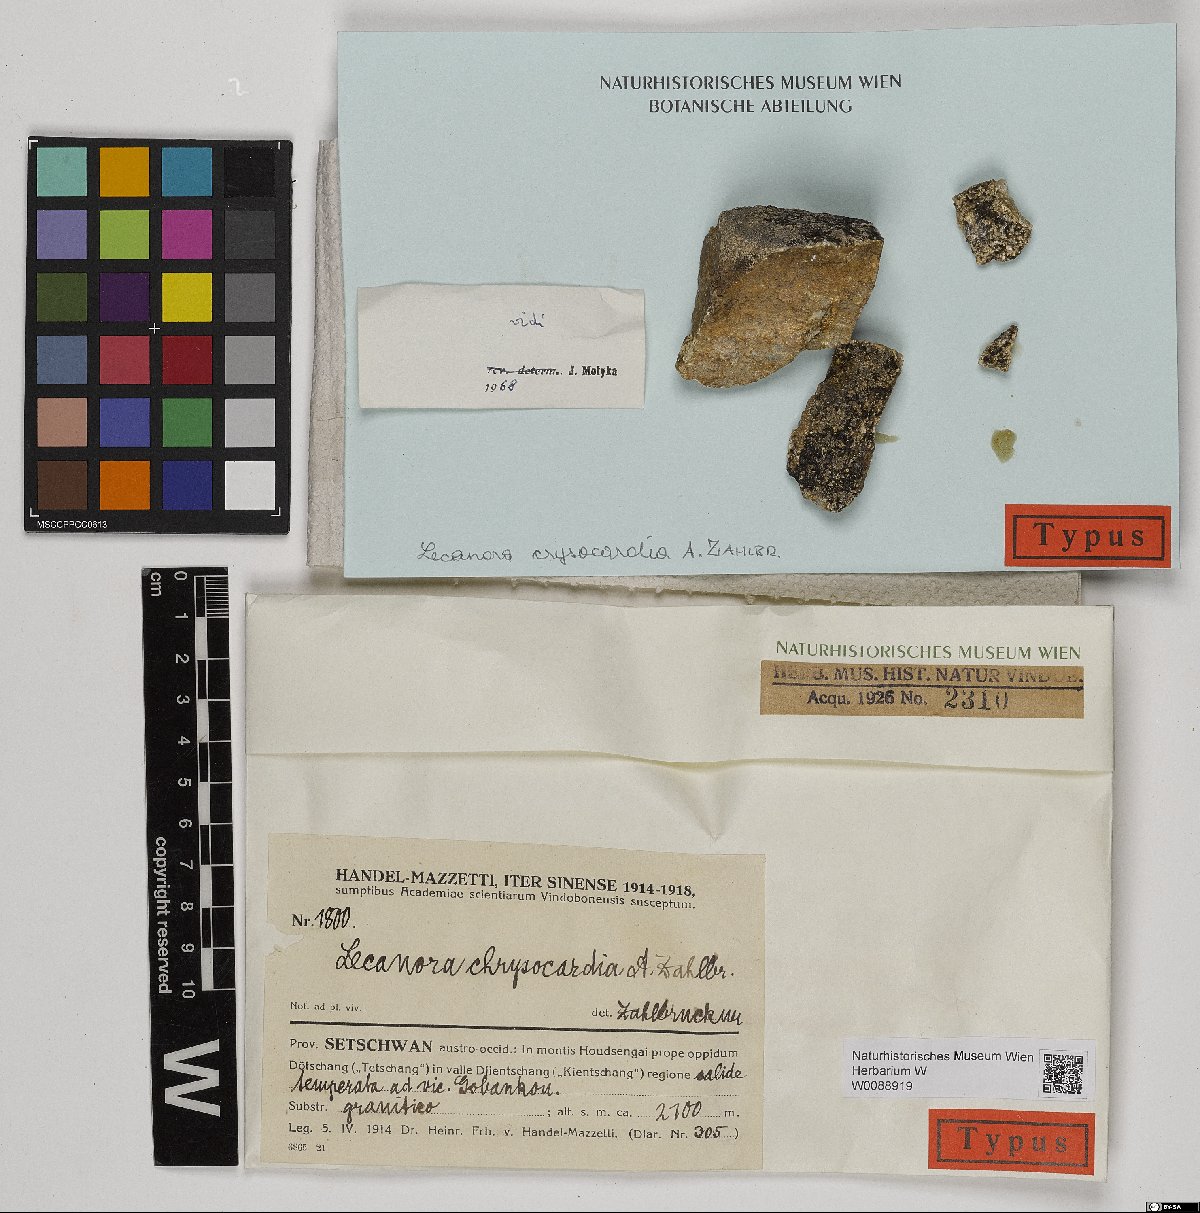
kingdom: Fungi
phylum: Ascomycota
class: Lecanoromycetes
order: Lecanorales
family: Lecanoraceae
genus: Lecanora
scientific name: Lecanora chrysocardia
